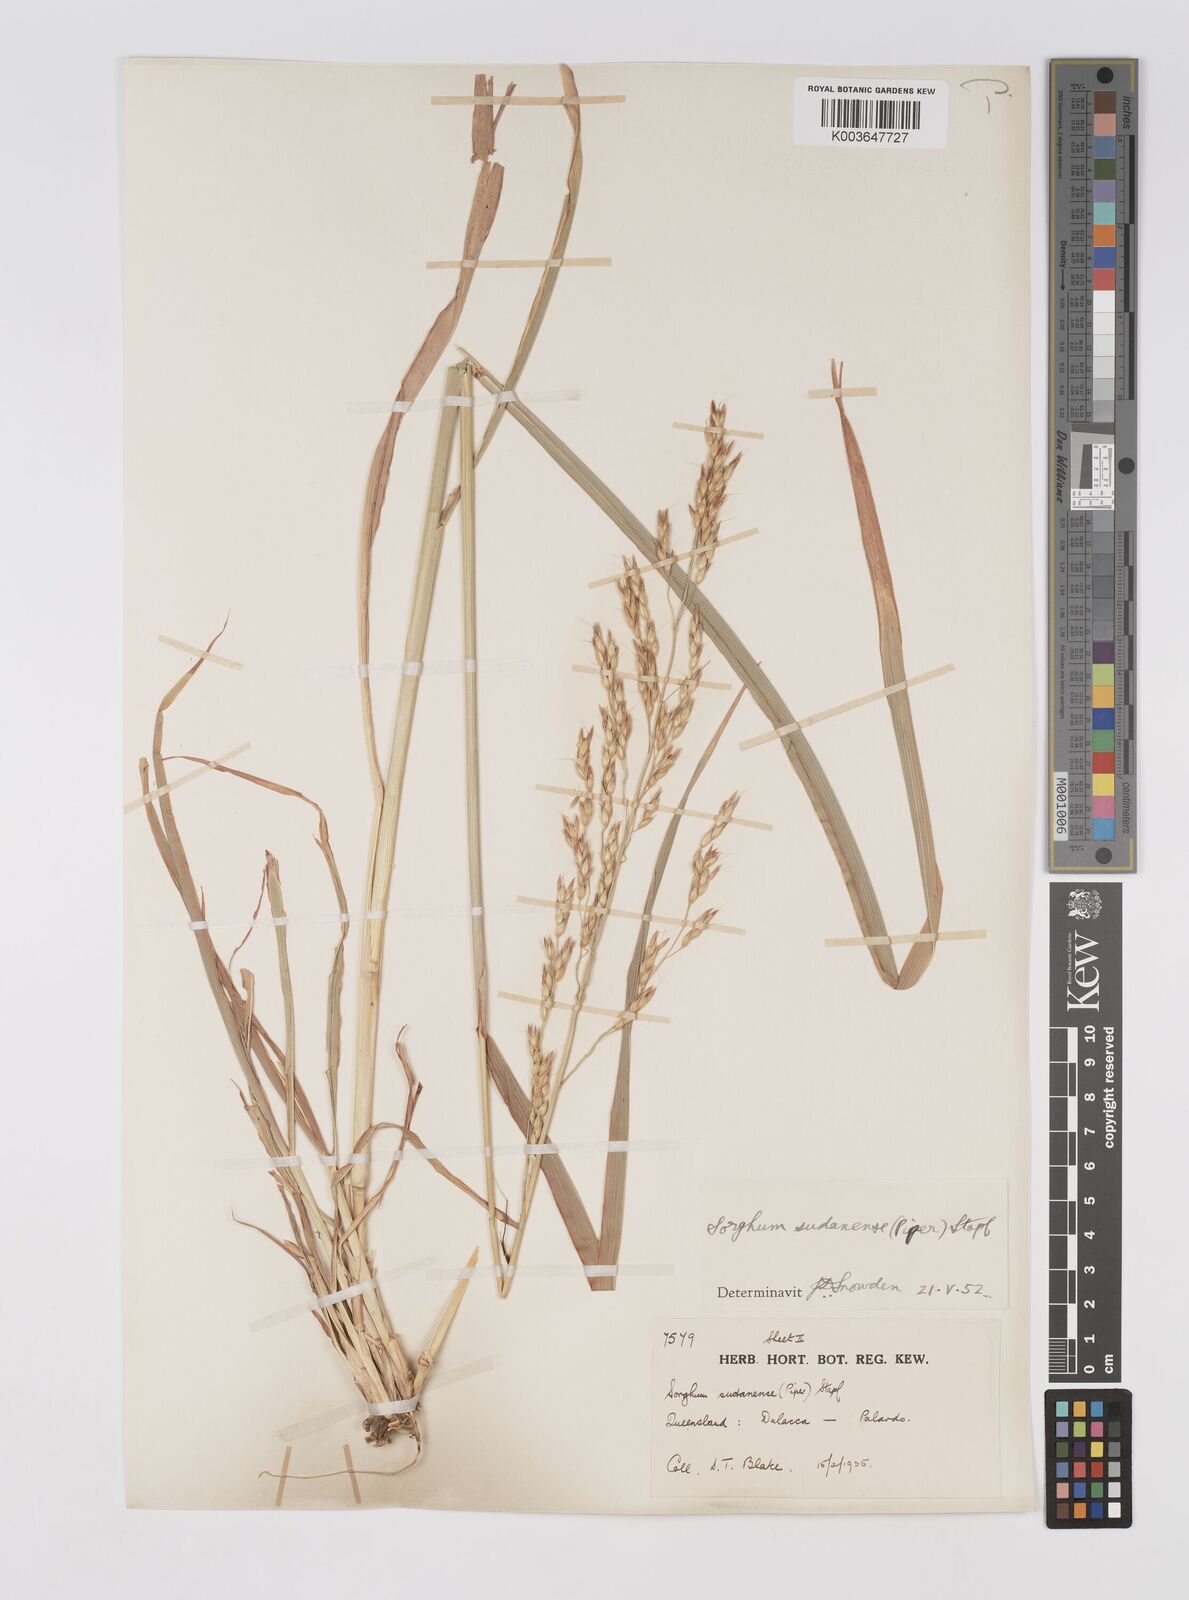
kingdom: Plantae
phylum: Tracheophyta
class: Liliopsida
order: Poales
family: Poaceae
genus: Sorghum
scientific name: Sorghum drummondii
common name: Sudangrass
